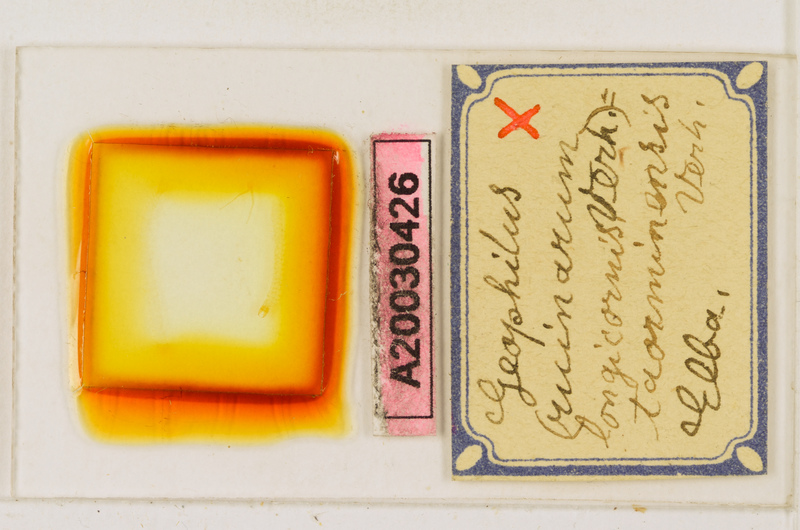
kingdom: Animalia
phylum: Arthropoda
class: Chilopoda
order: Geophilomorpha
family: Geophilidae
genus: Geophilus
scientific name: Geophilus fucorum
